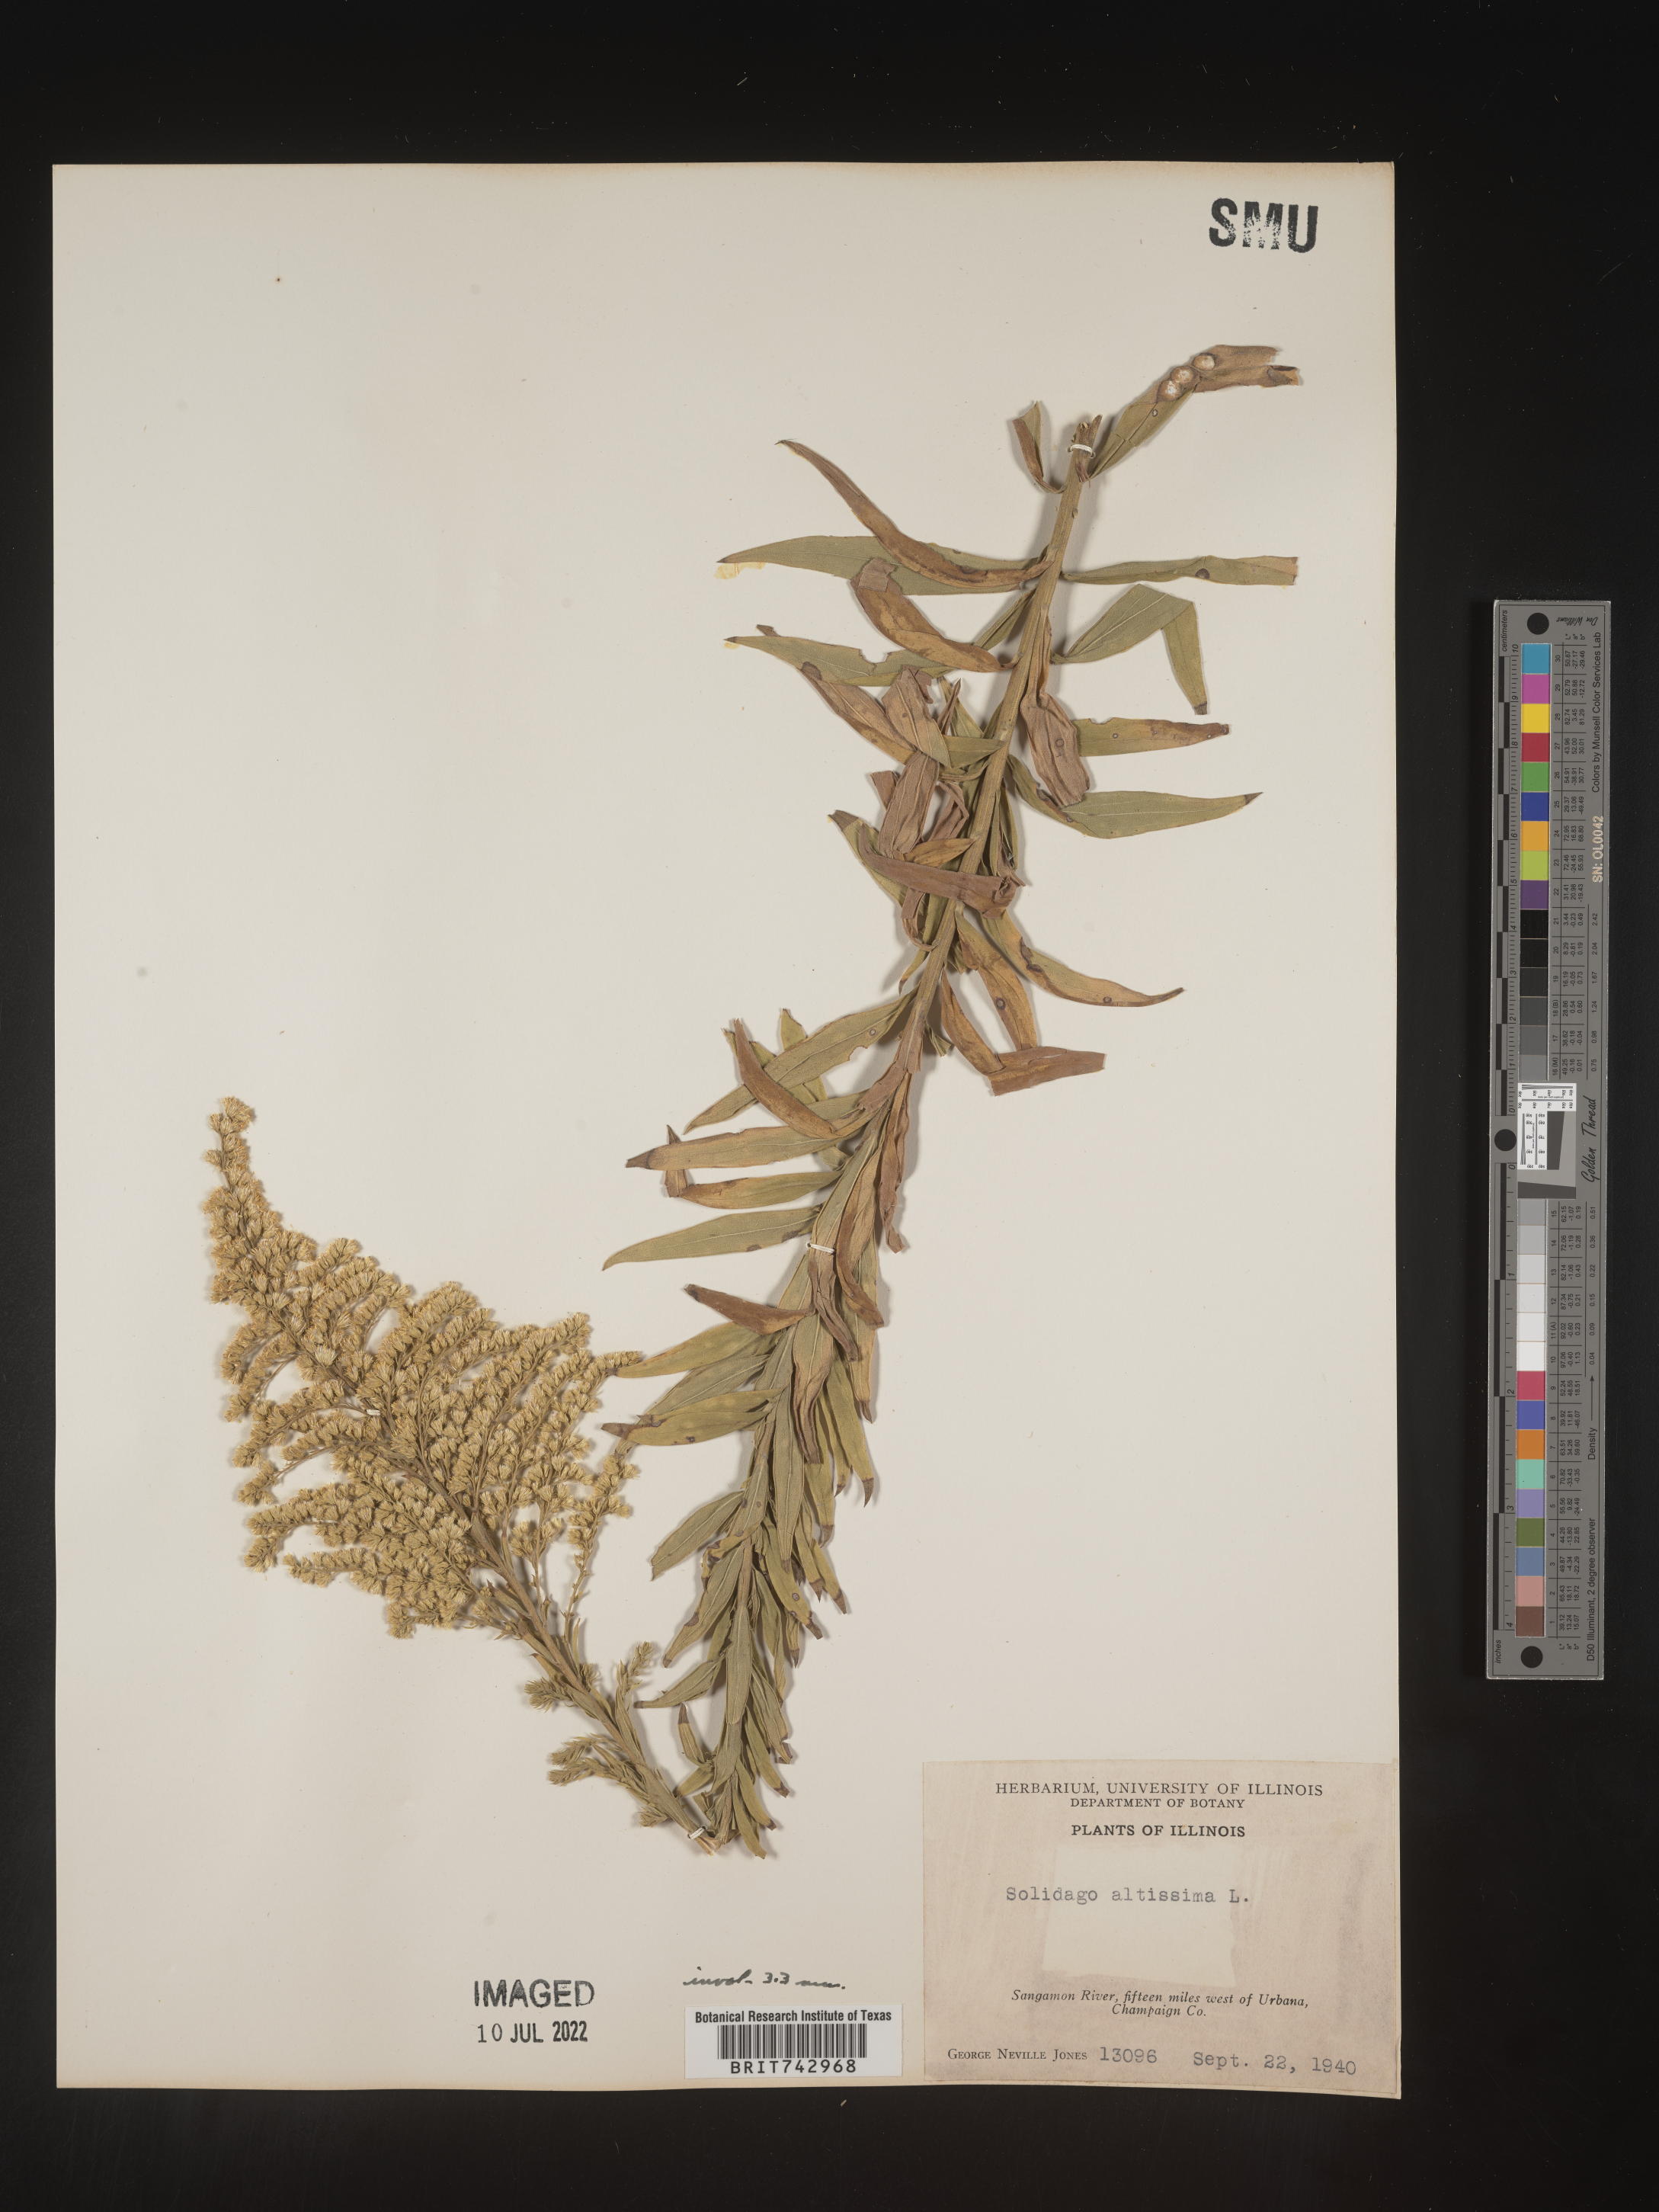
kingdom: Plantae
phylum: Tracheophyta
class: Magnoliopsida
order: Asterales
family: Asteraceae
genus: Solidago
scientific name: Solidago altissima
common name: Late goldenrod
